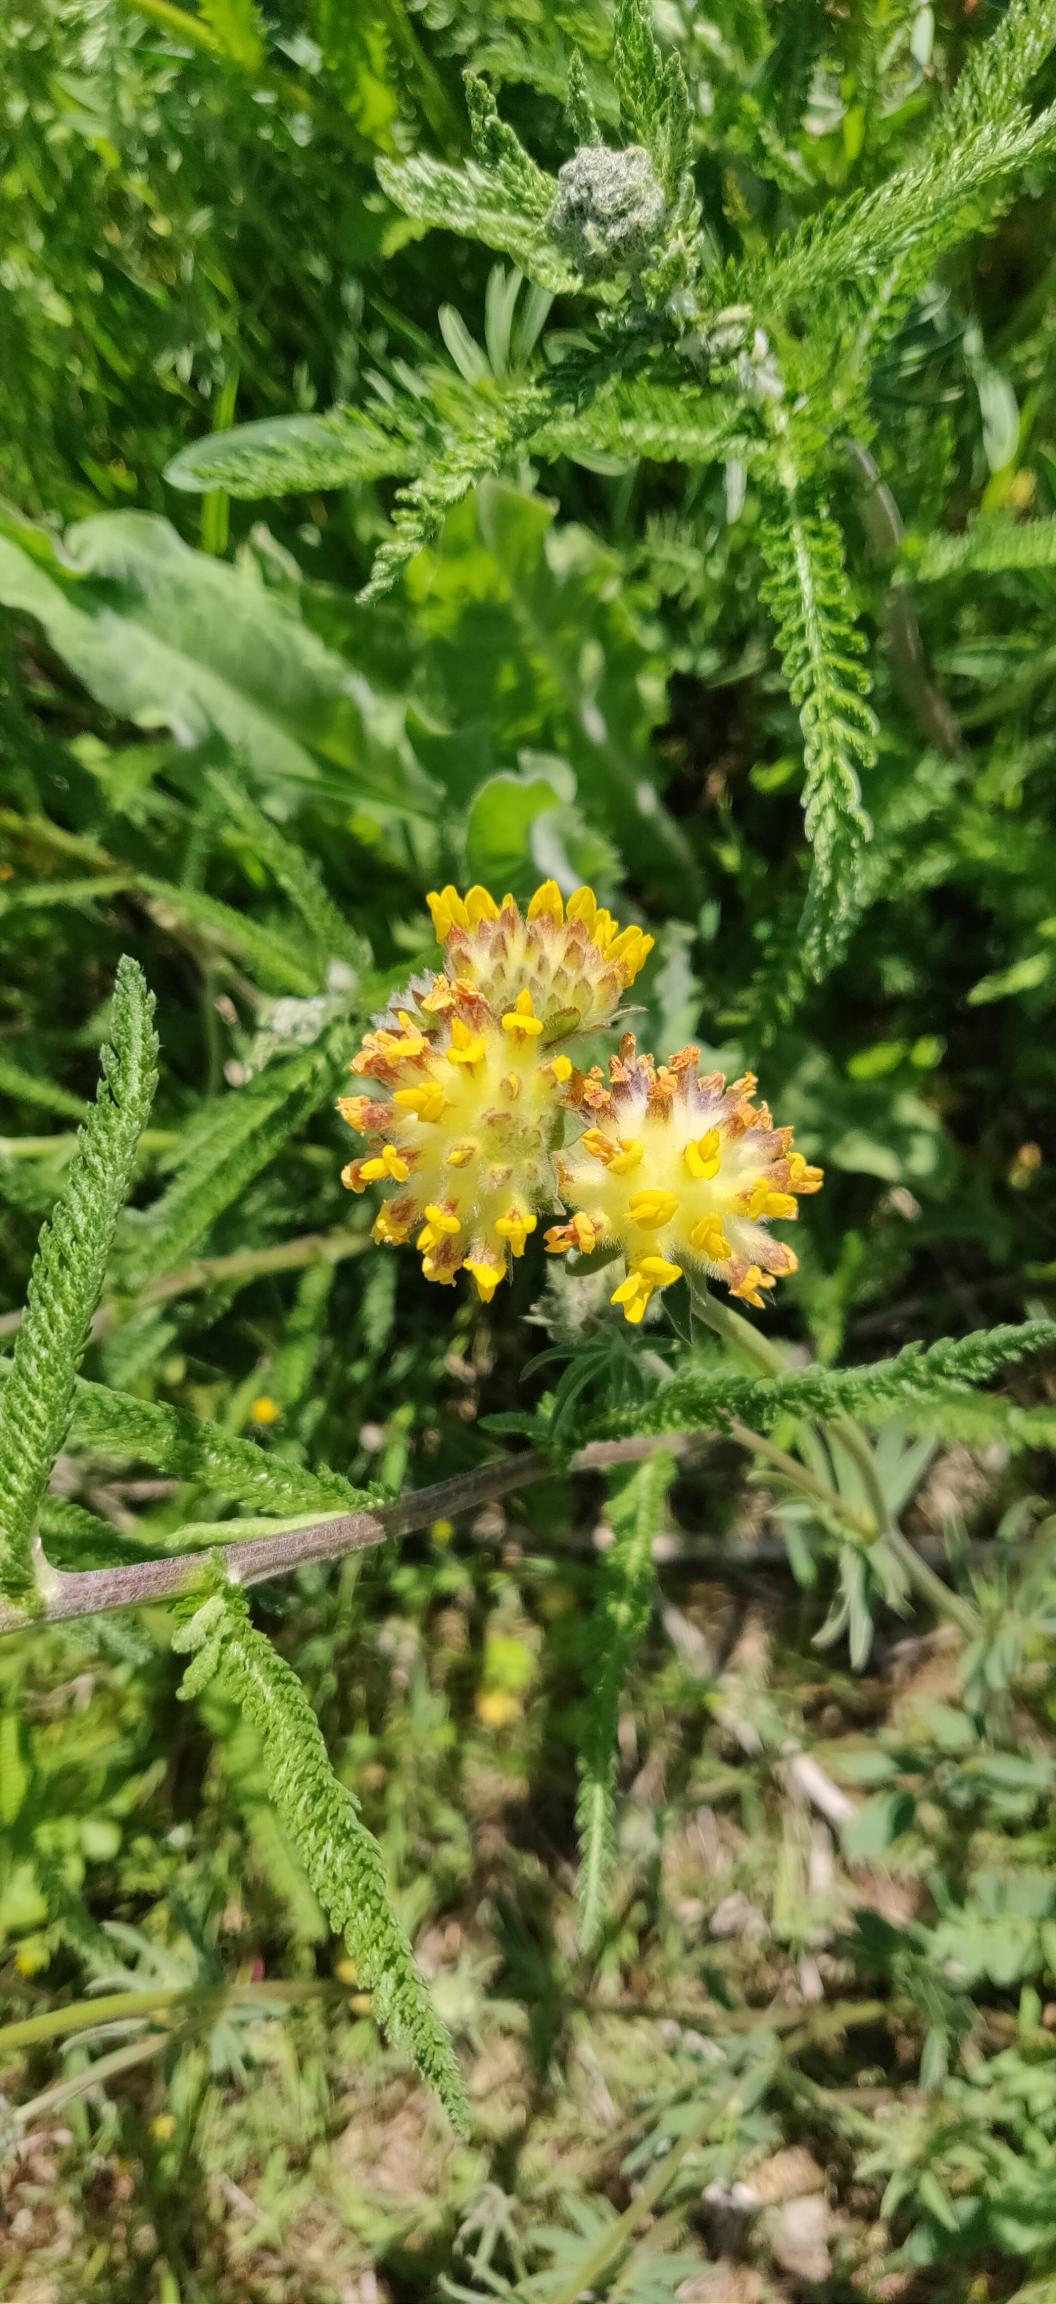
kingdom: Plantae
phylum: Tracheophyta
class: Magnoliopsida
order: Fabales
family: Fabaceae
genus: Anthyllis
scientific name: Anthyllis vulneraria
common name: Rundbælg
